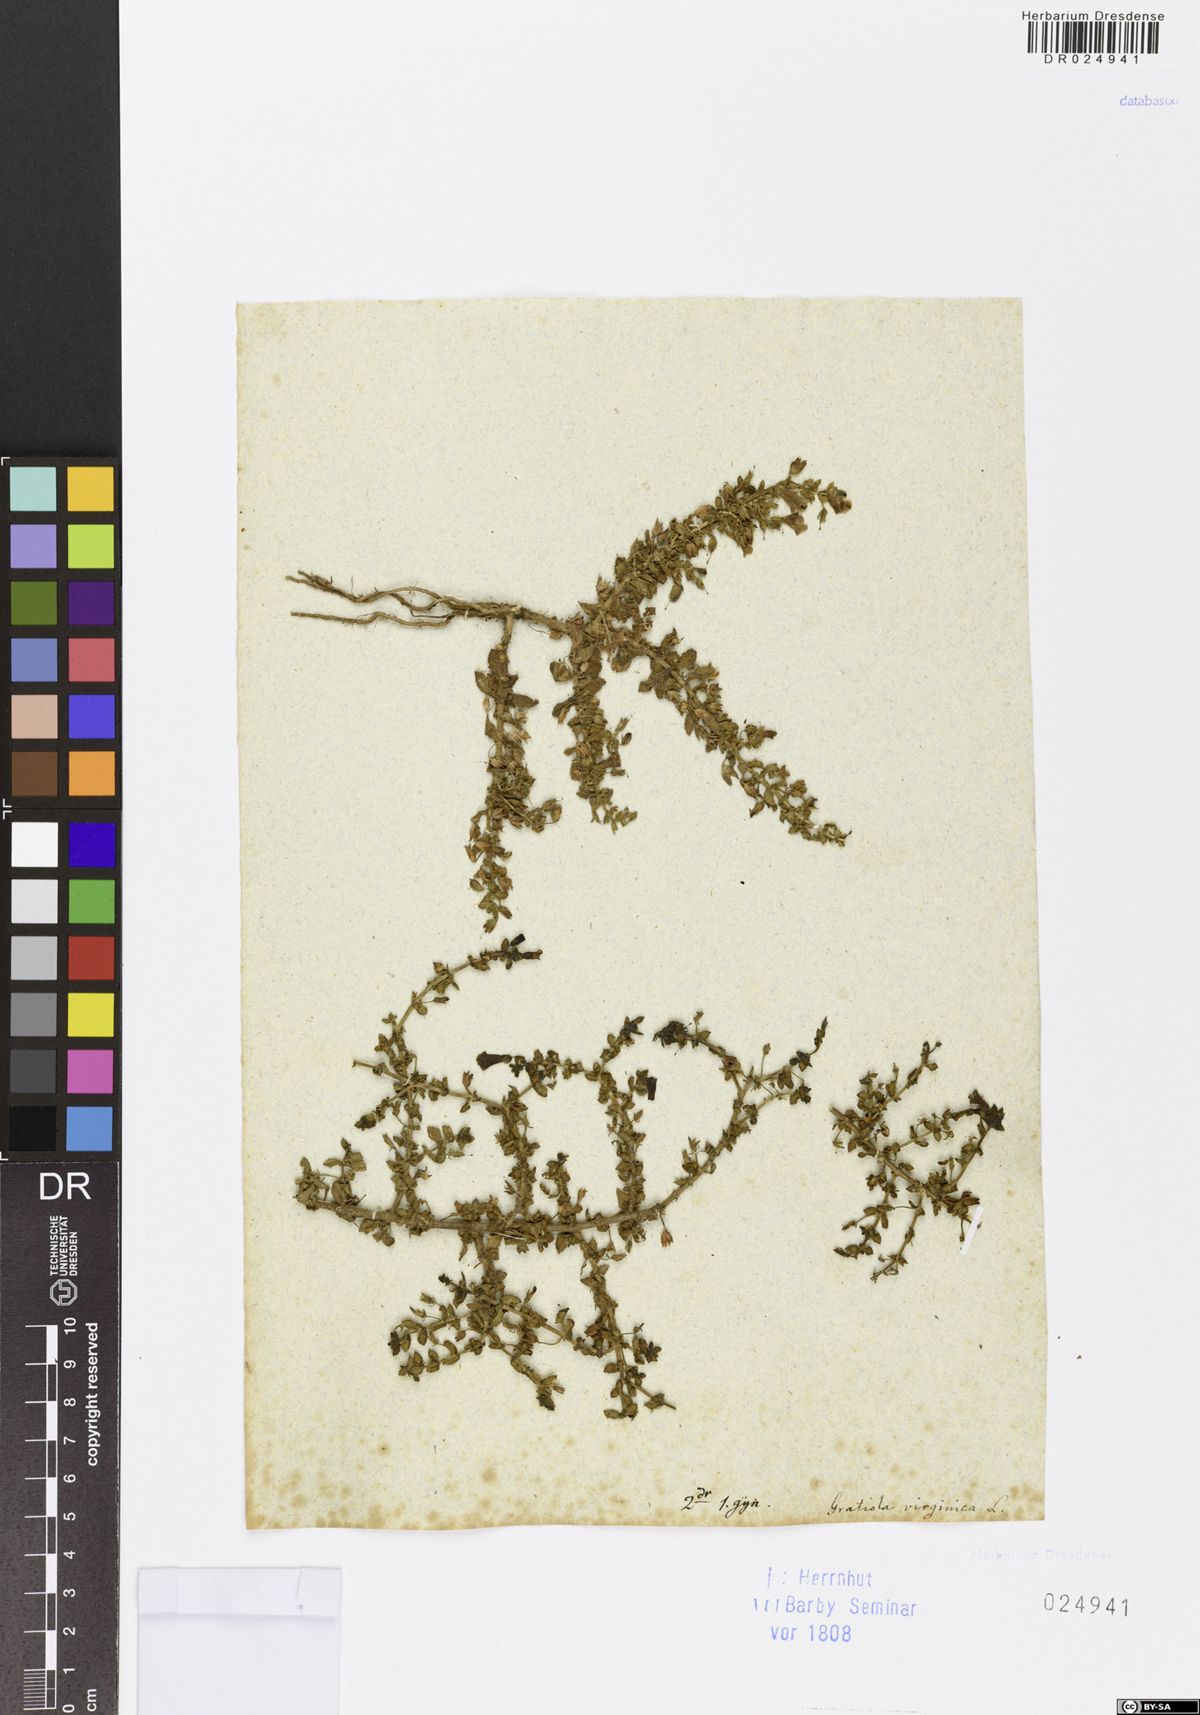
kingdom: Plantae
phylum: Tracheophyta
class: Magnoliopsida
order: Lamiales
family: Plantaginaceae
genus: Gratiola
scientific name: Gratiola virginiana
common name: Roundfruit hedgehyssop
